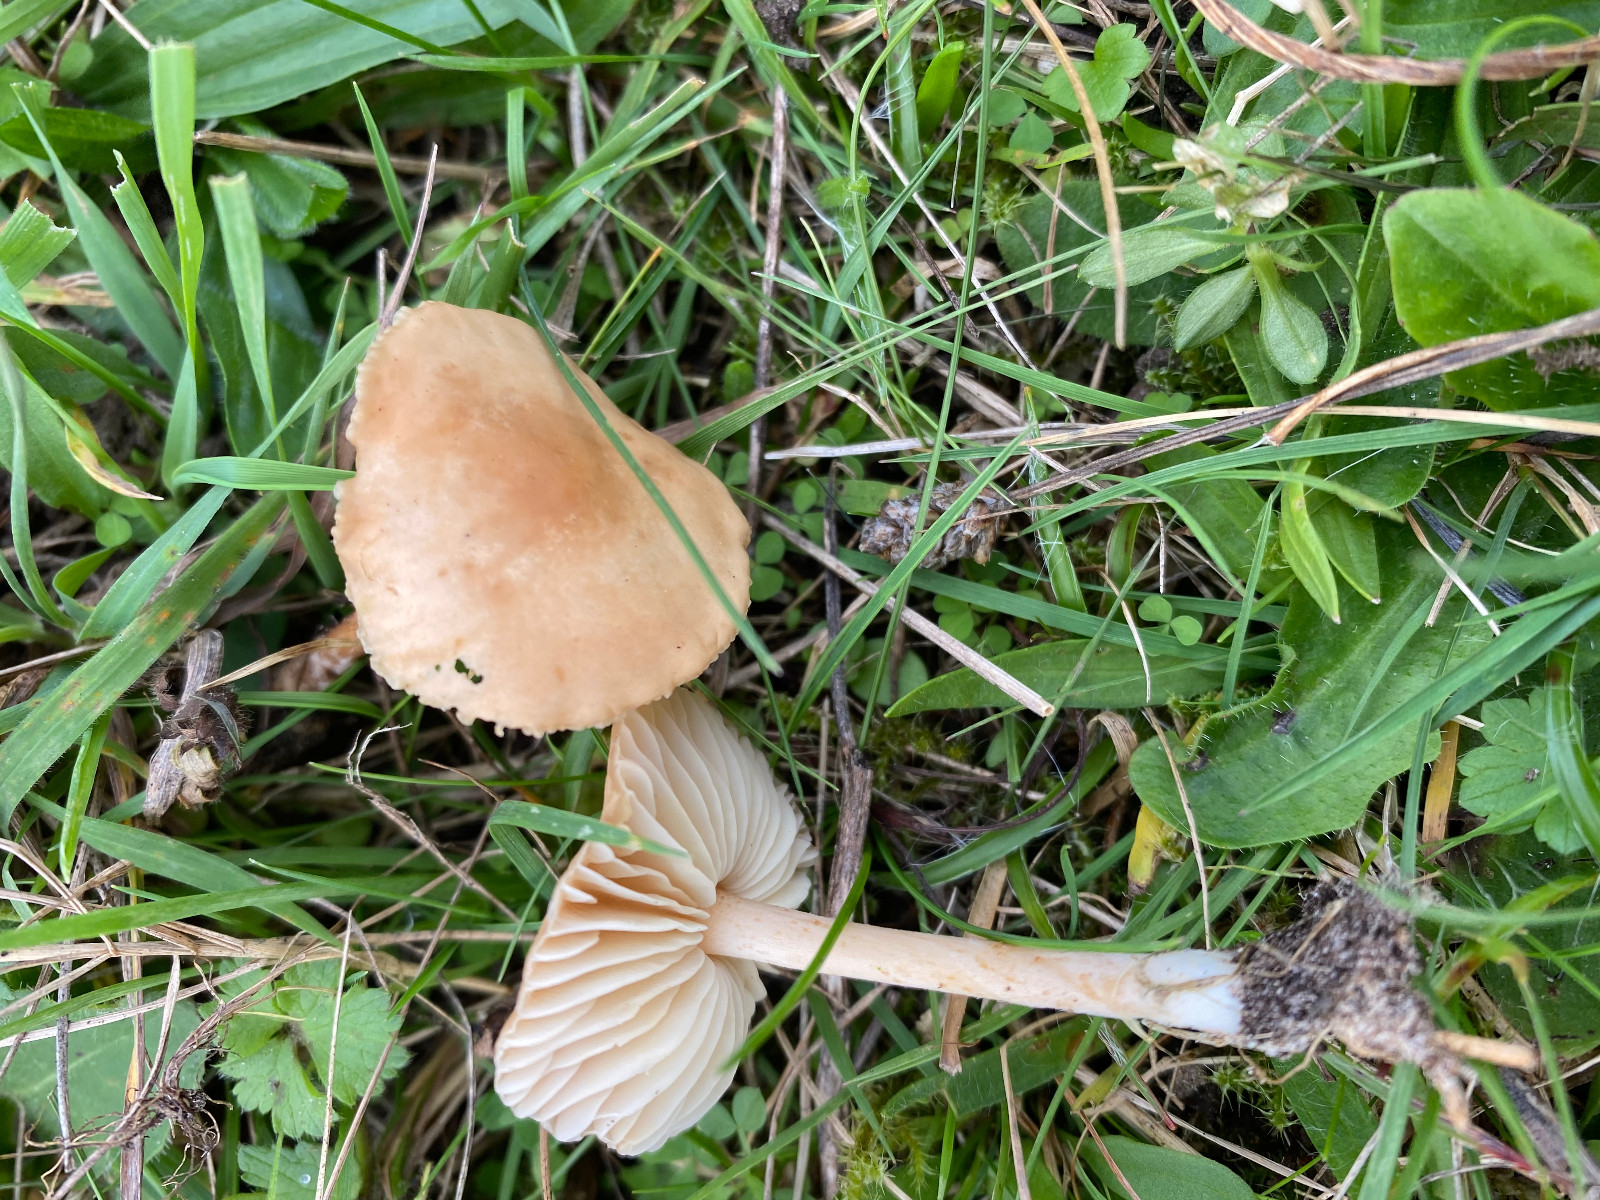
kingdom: Fungi
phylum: Basidiomycota
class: Agaricomycetes
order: Agaricales
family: Marasmiaceae
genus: Marasmius
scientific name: Marasmius oreades
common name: elledans-bruskhat
